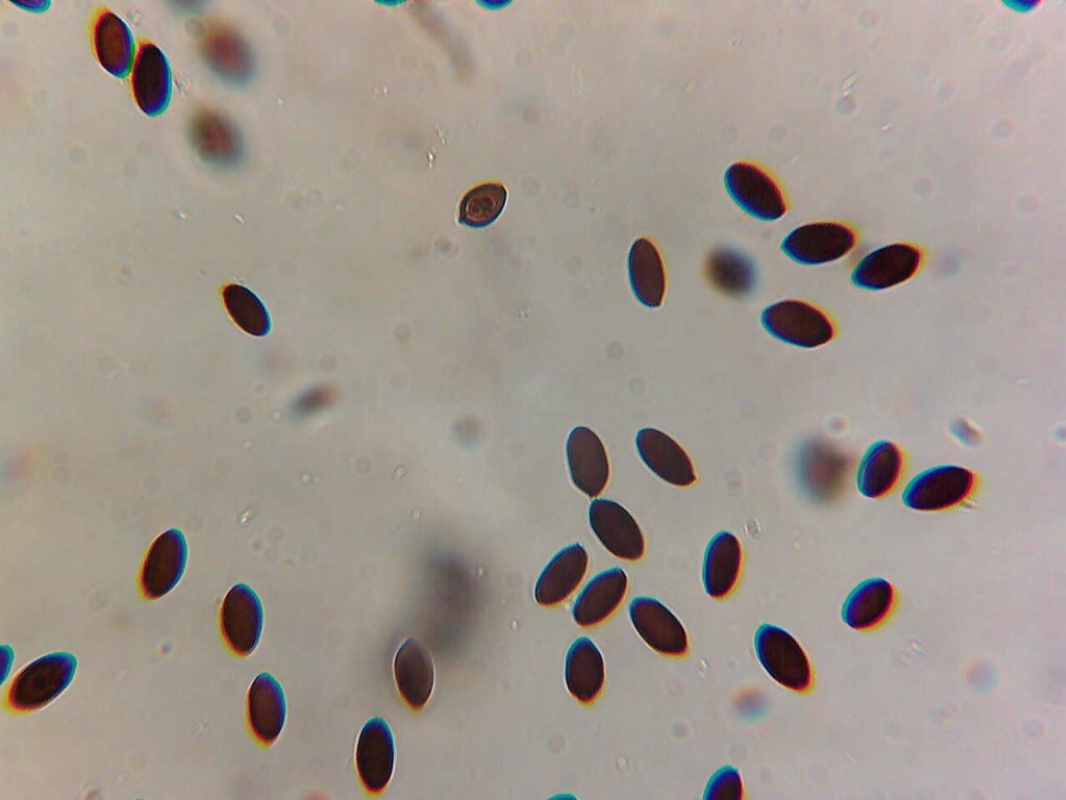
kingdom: Fungi
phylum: Basidiomycota
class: Agaricomycetes
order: Agaricales
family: Bolbitiaceae
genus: Panaeolus
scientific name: Panaeolus semiovatus
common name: ring-glanshat
